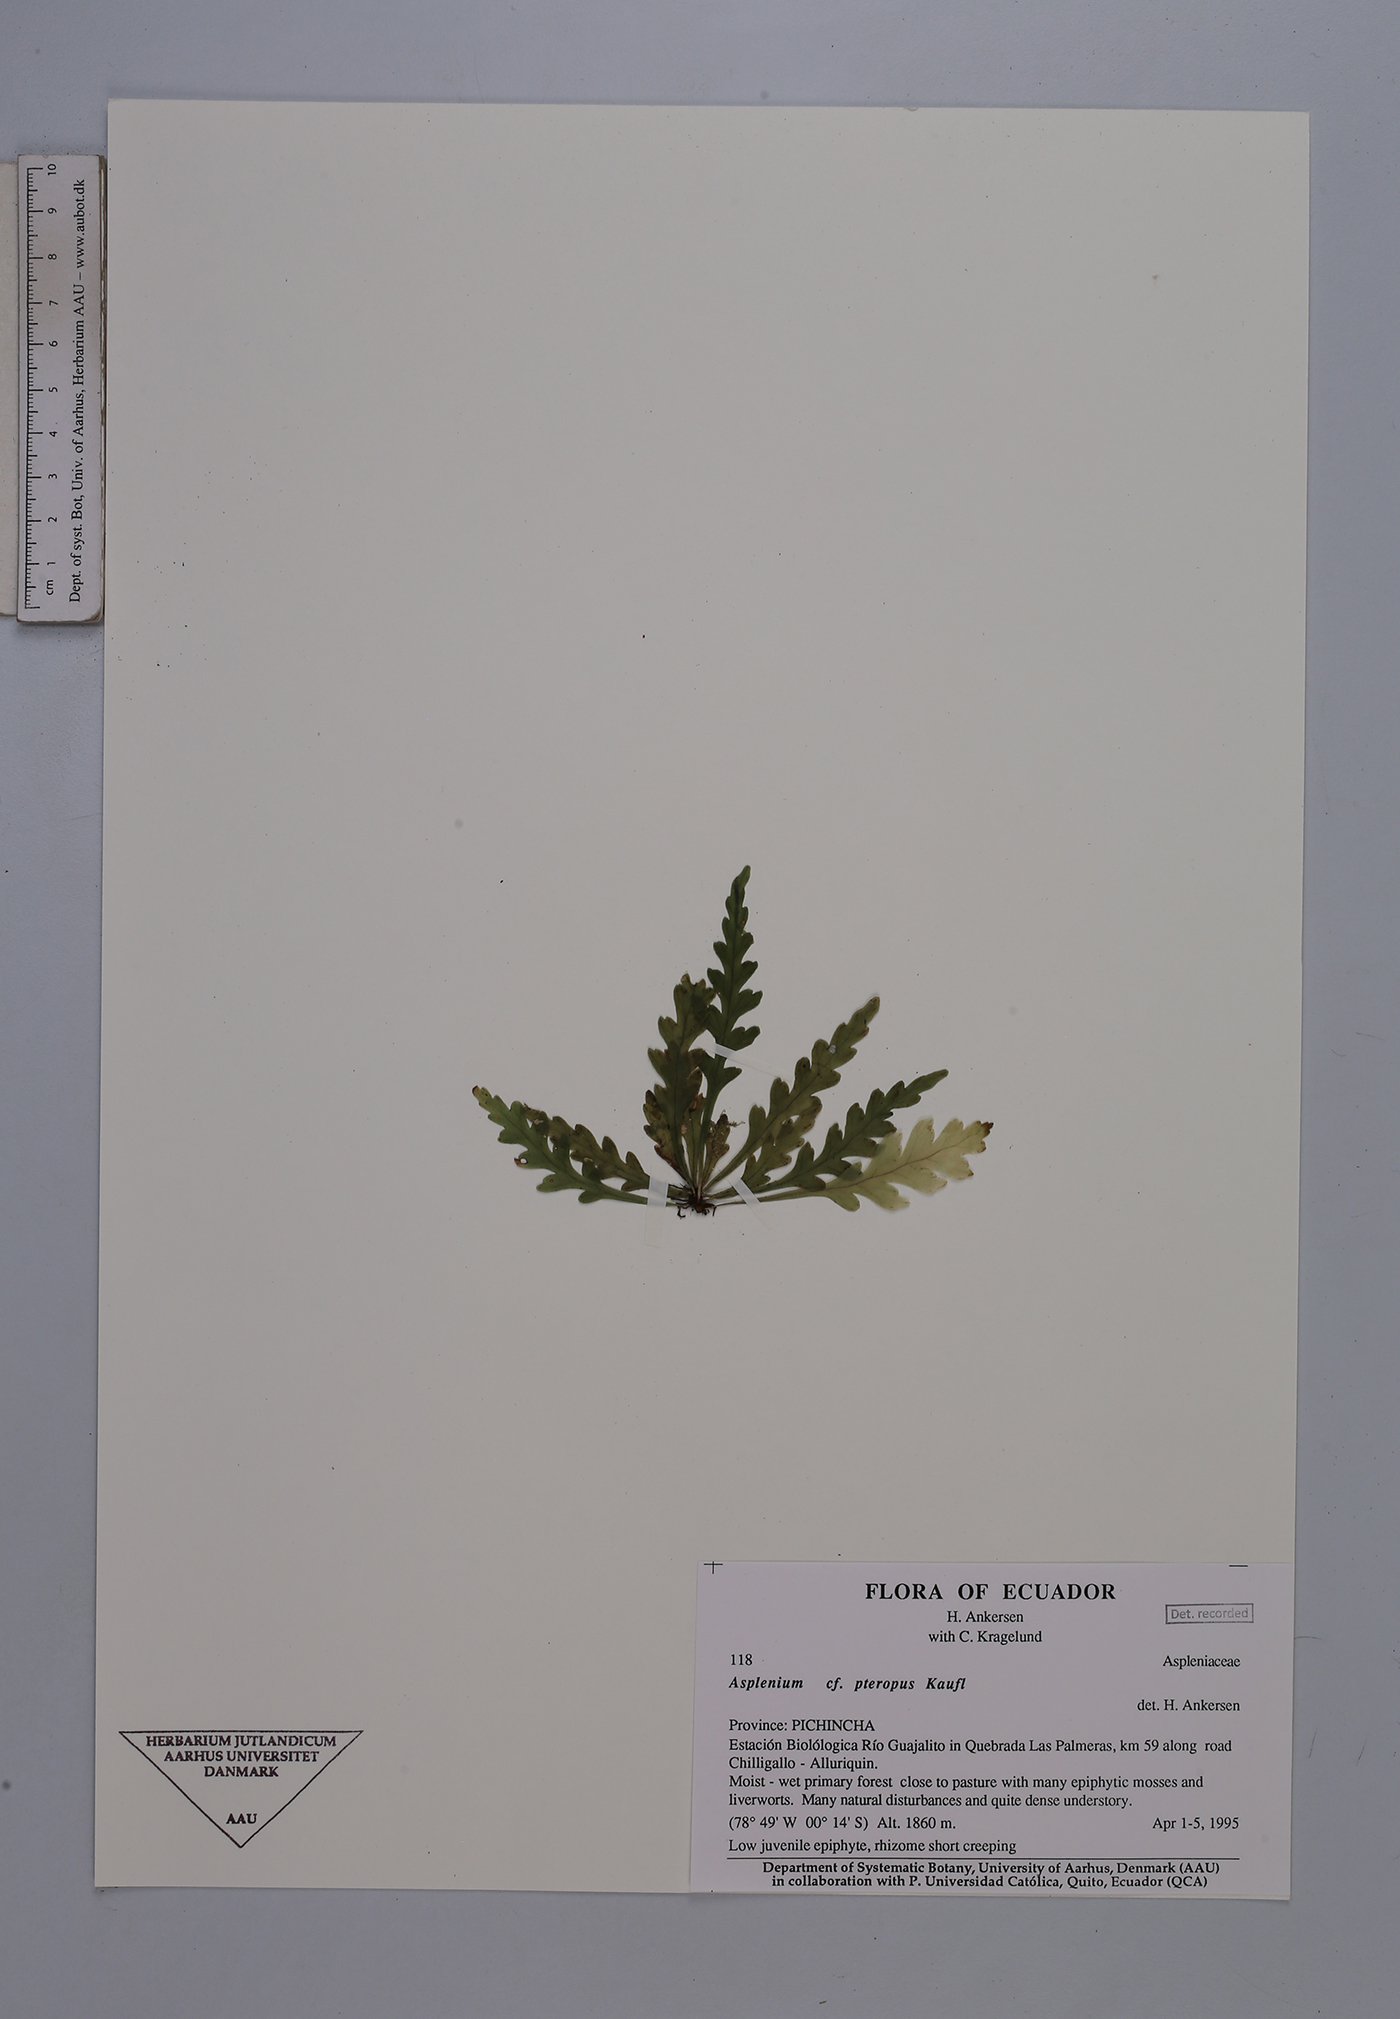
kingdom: Plantae
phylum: Tracheophyta
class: Polypodiopsida
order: Polypodiales
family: Aspleniaceae
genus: Asplenium
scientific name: Asplenium pteropus
